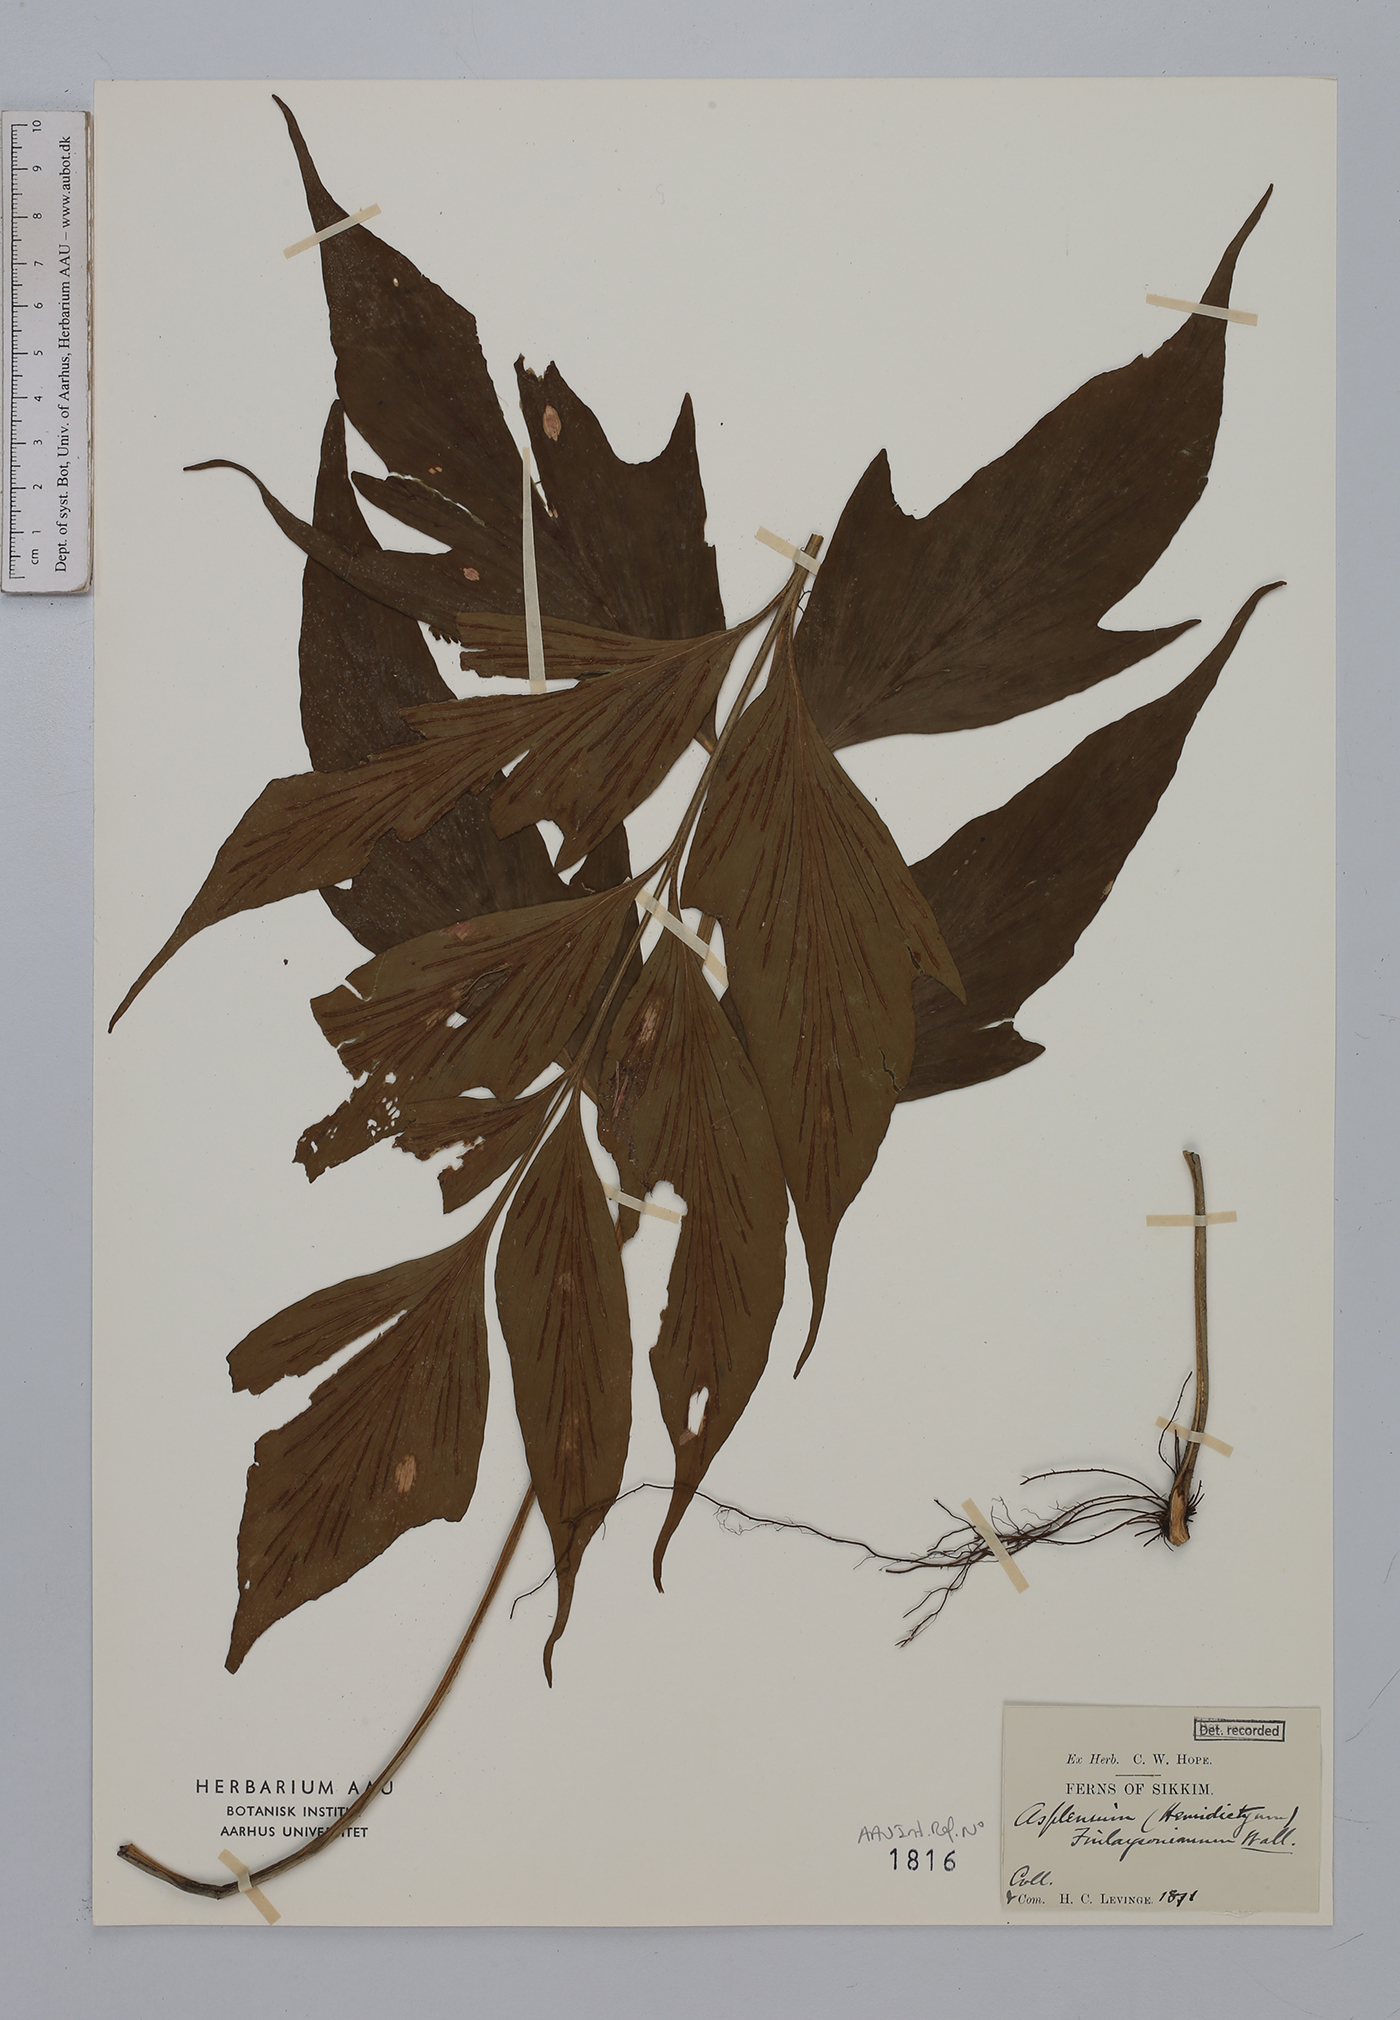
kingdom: Plantae
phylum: Tracheophyta
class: Polypodiopsida
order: Polypodiales
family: Aspleniaceae
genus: Asplenium
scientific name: Asplenium finlaysonianum
